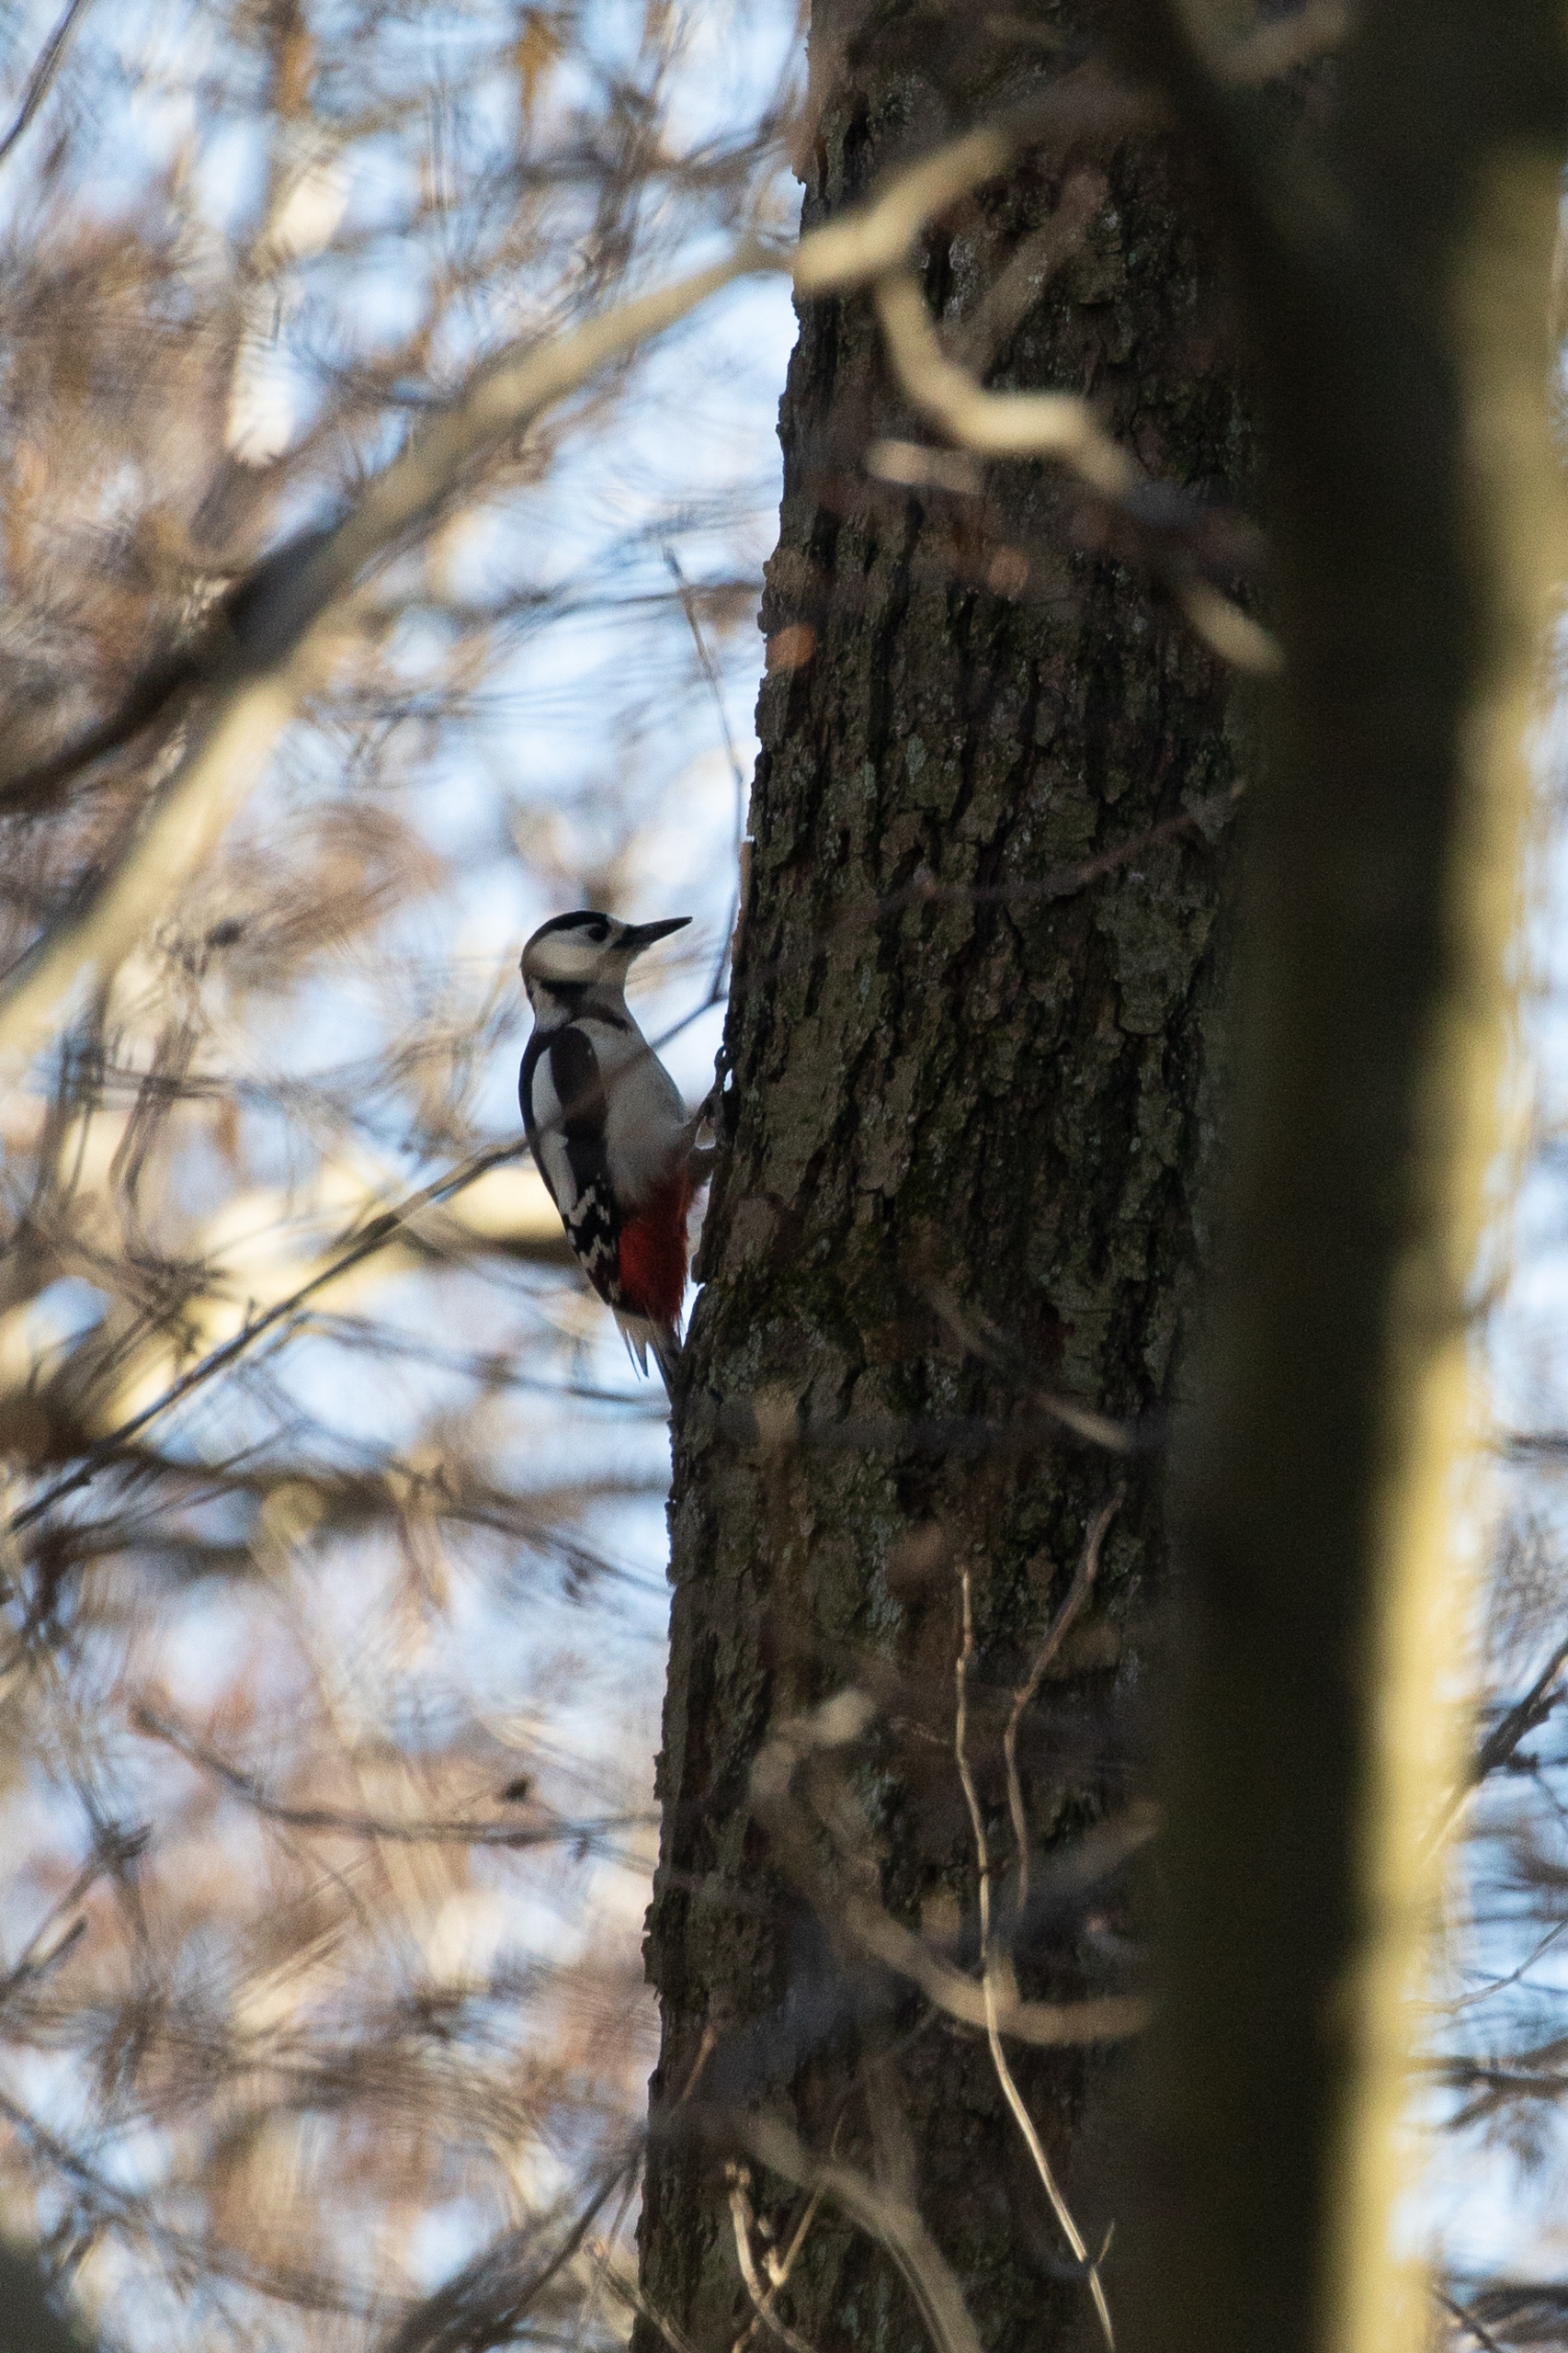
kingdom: Animalia
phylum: Chordata
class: Aves
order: Piciformes
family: Picidae
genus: Dendrocopos
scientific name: Dendrocopos major
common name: Stor flagspætte
